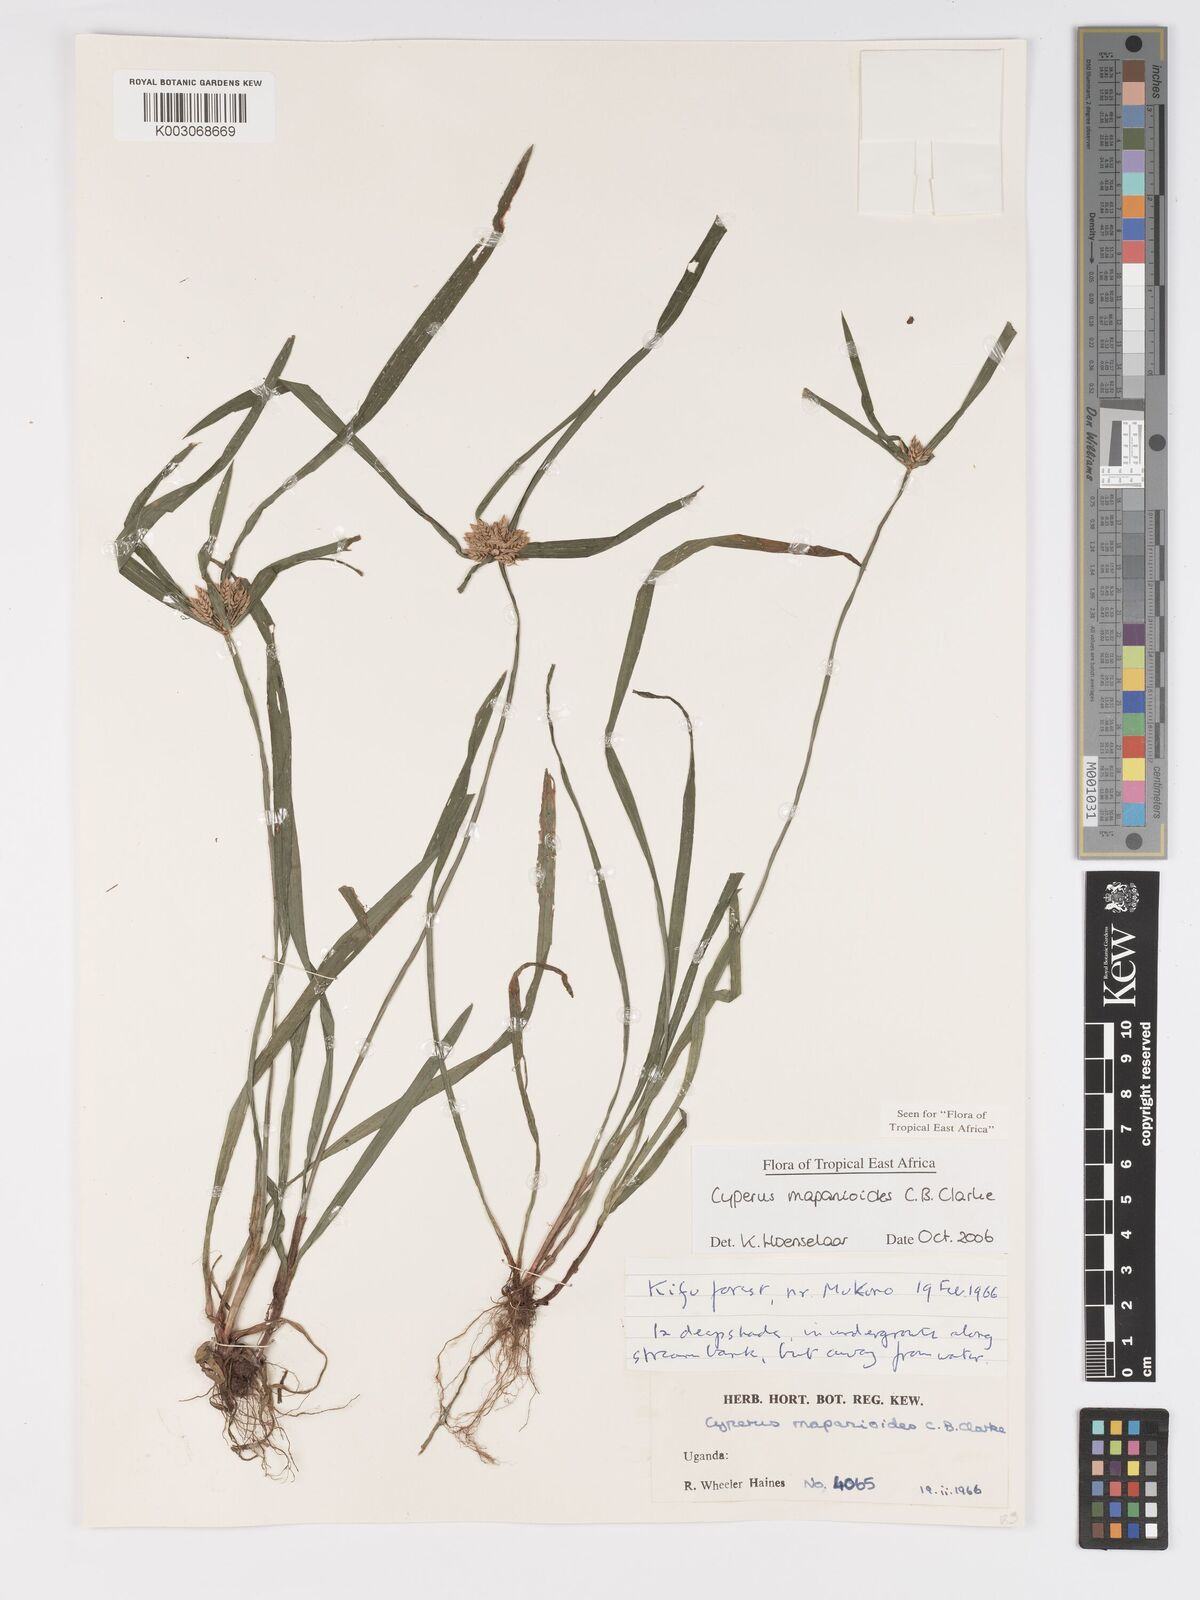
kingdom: Plantae
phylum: Tracheophyta
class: Liliopsida
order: Poales
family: Cyperaceae
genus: Cyperus
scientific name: Cyperus mapanioides
